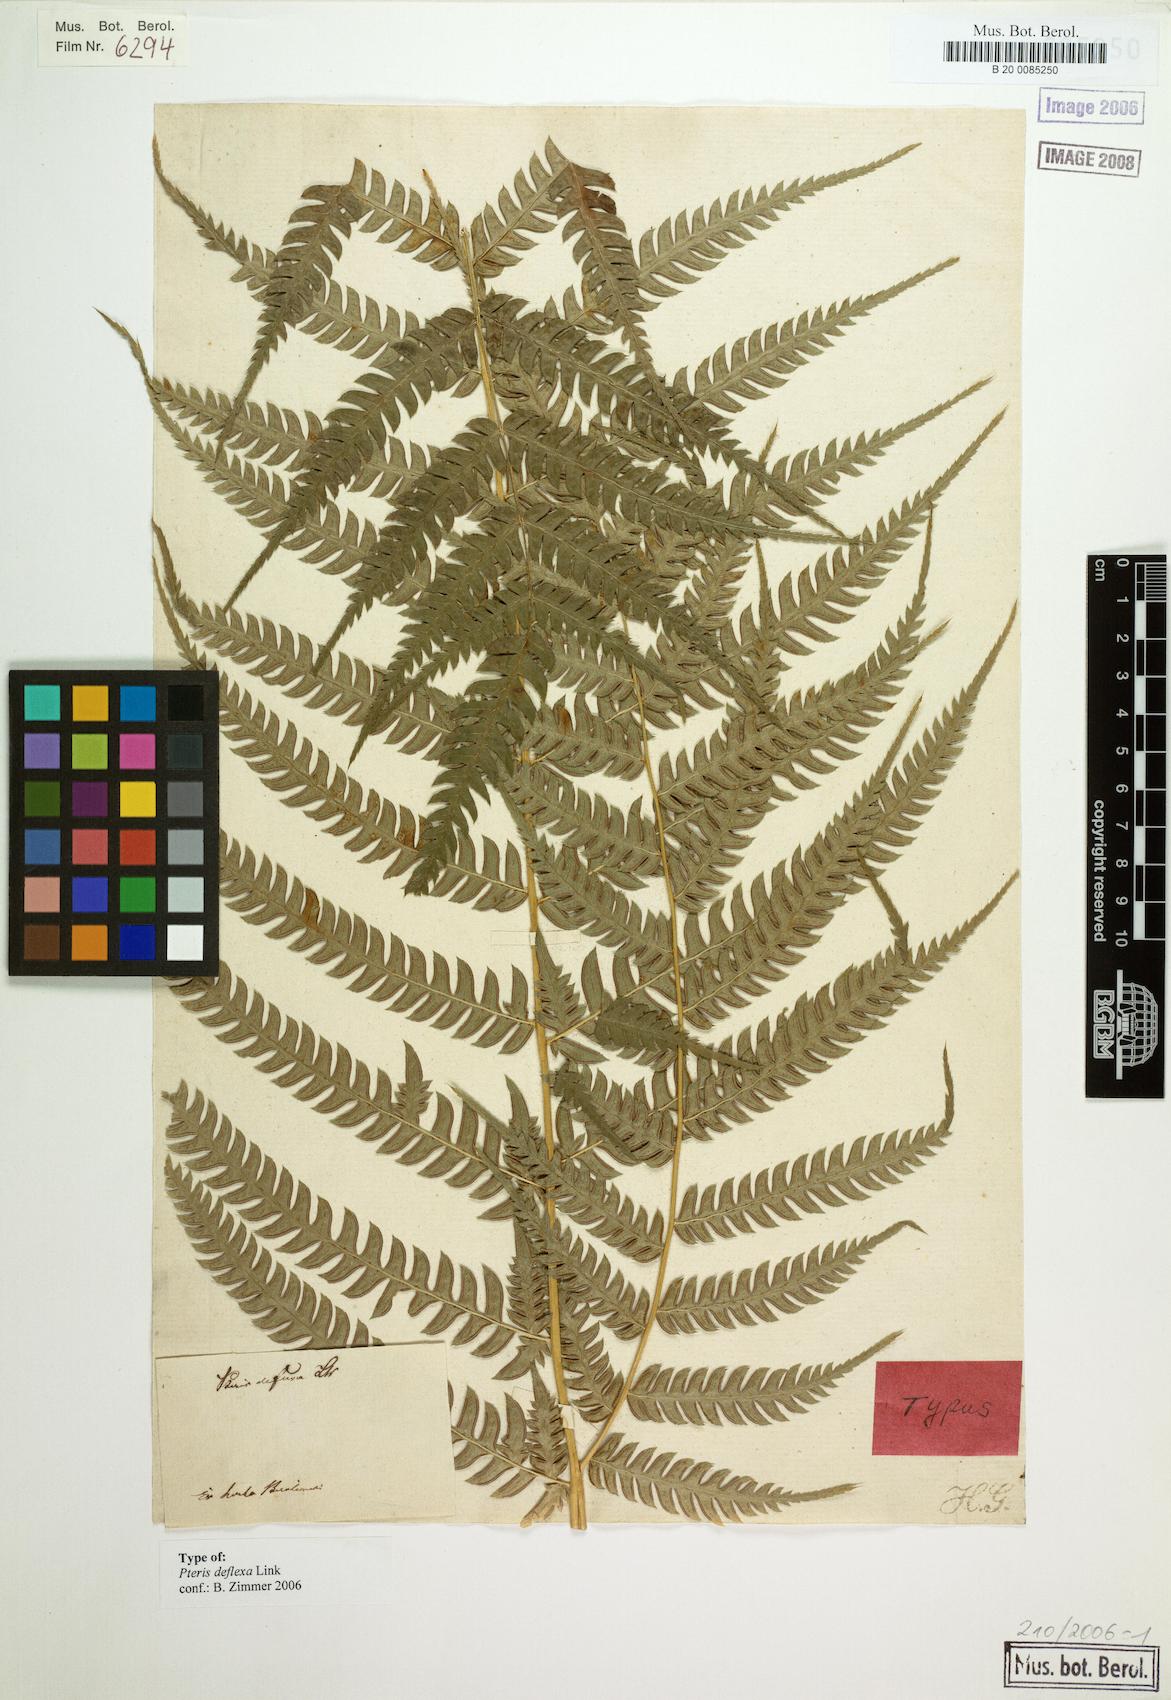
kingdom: Plantae
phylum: Tracheophyta
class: Polypodiopsida
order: Polypodiales
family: Pteridaceae
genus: Pteris
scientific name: Pteris deflexa
